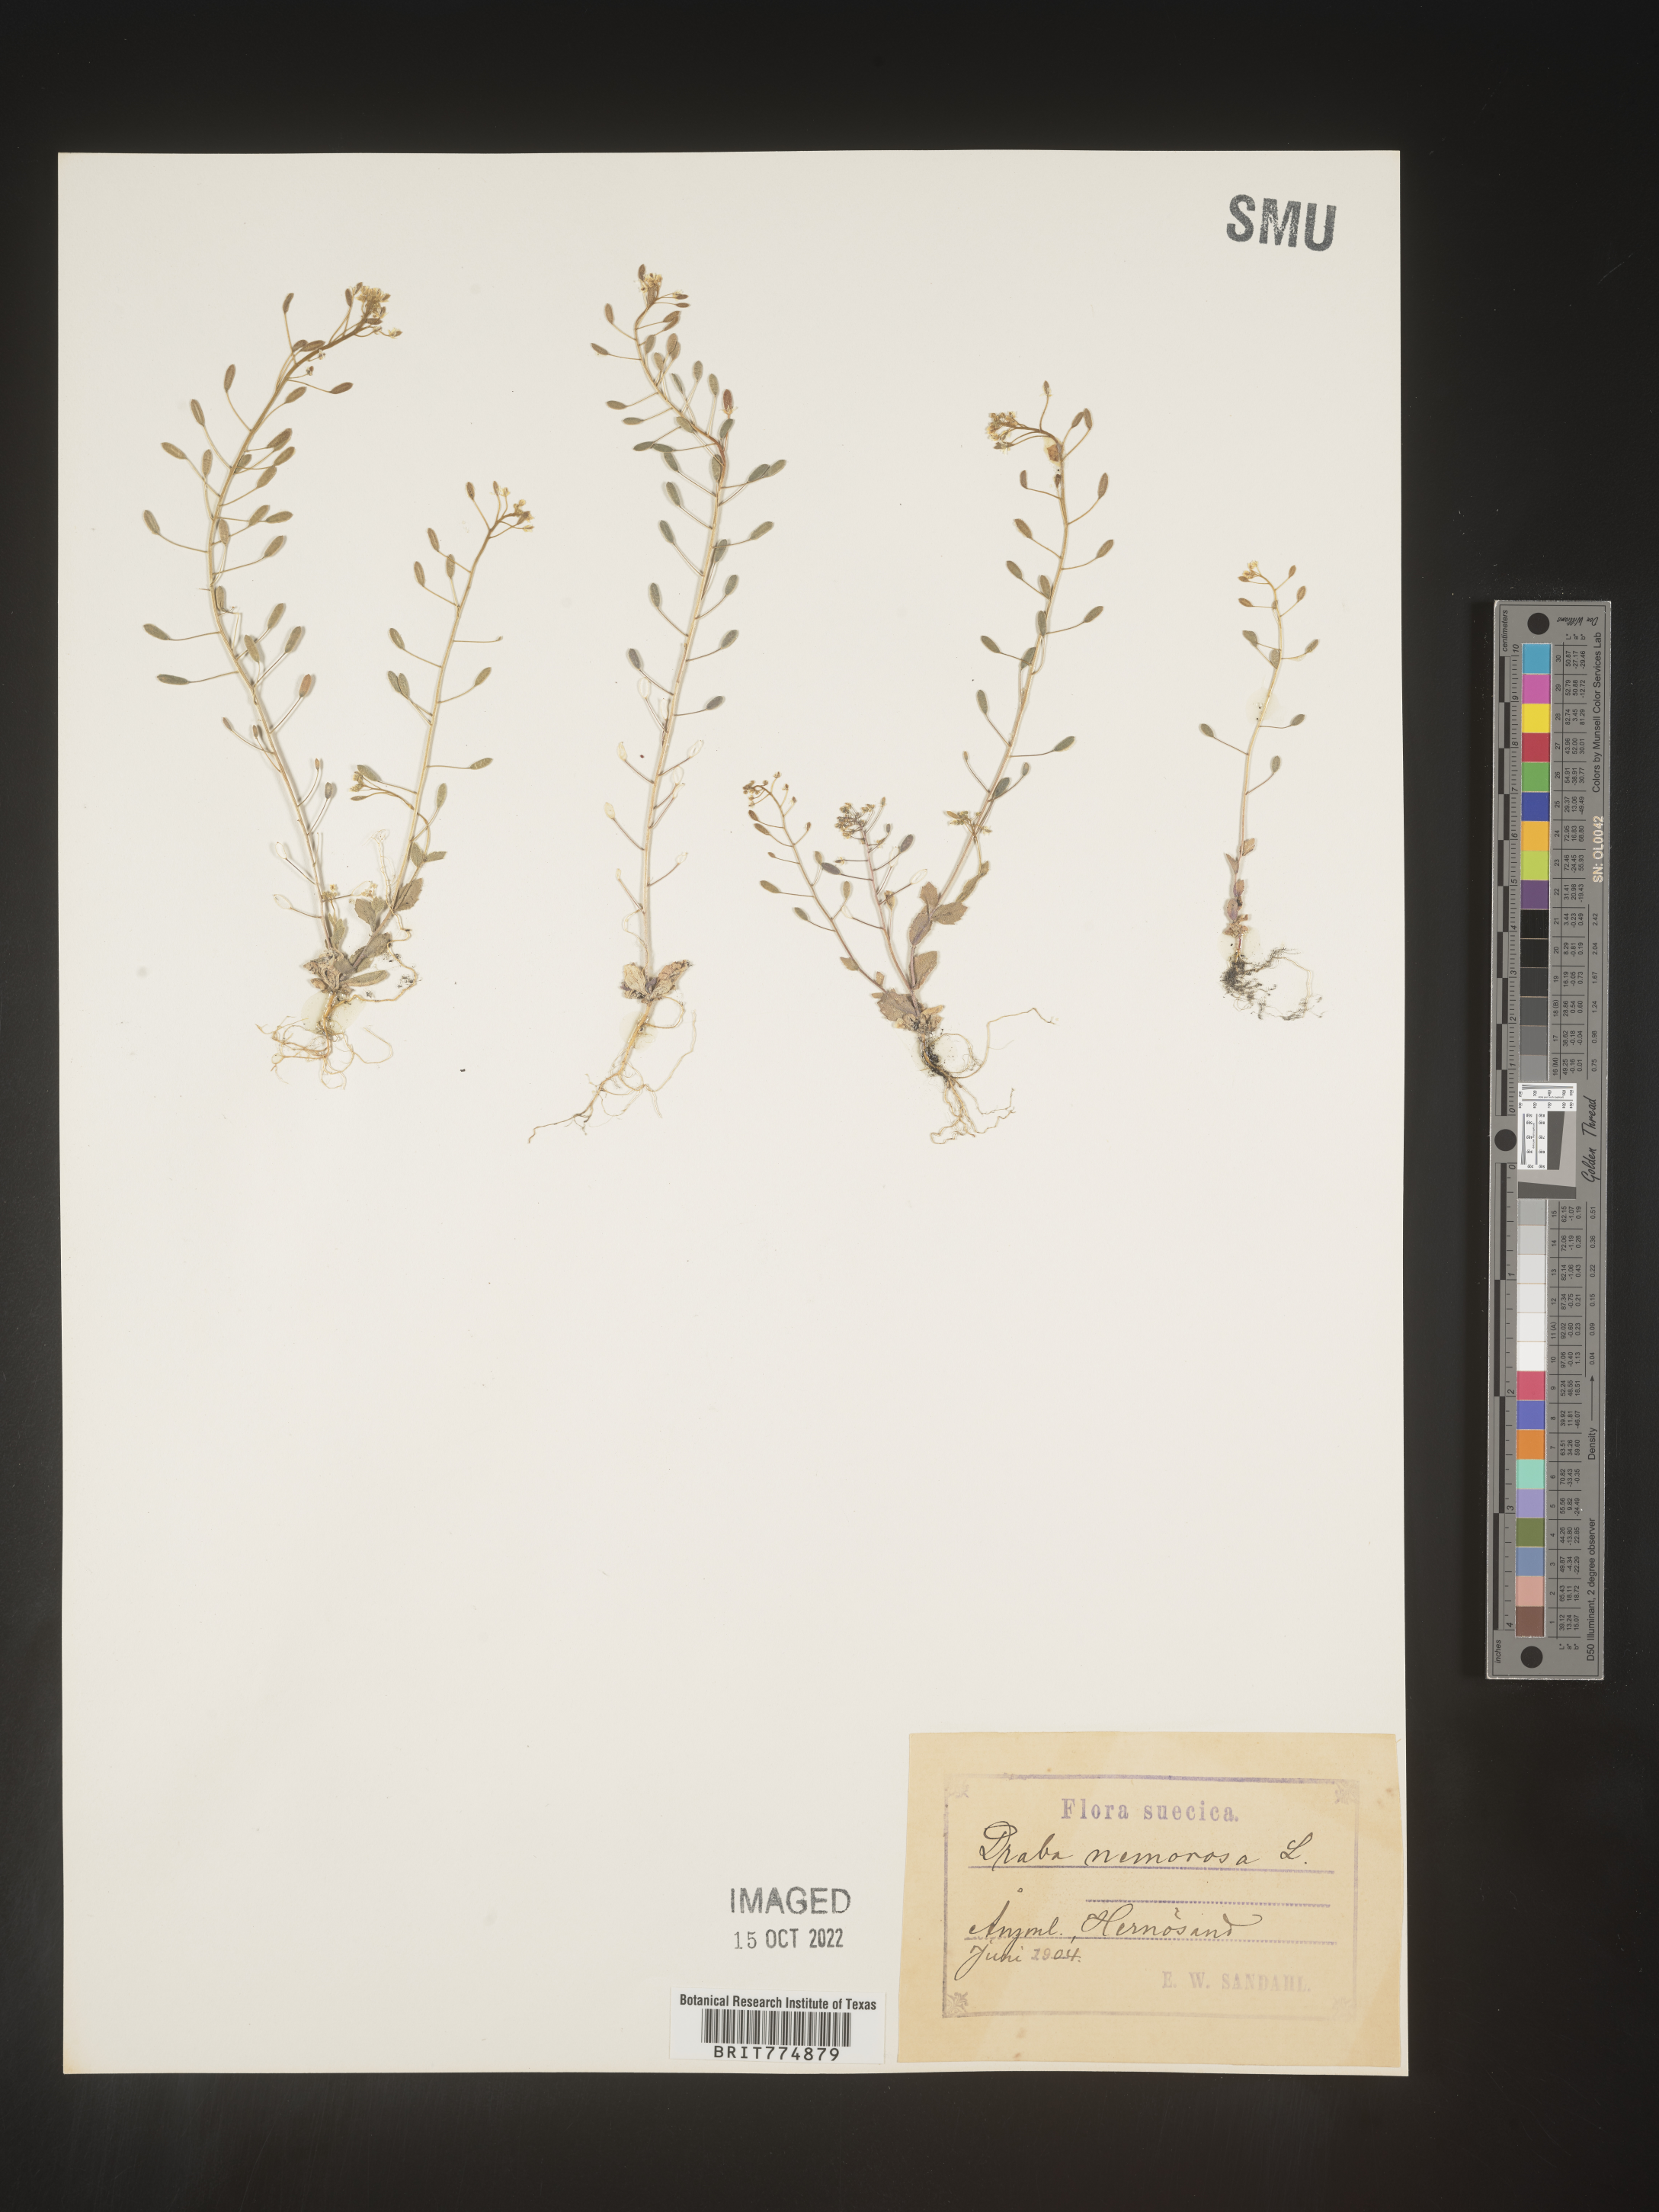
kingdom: Plantae
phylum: Tracheophyta
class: Magnoliopsida
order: Brassicales
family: Brassicaceae
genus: Draba
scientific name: Draba
